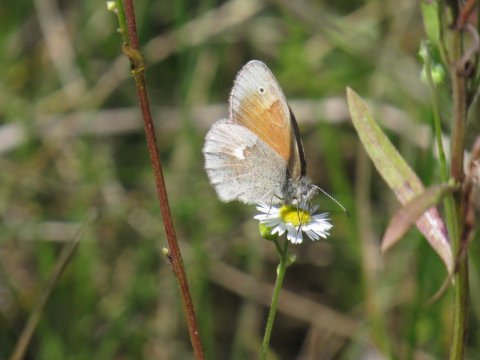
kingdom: Animalia
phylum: Arthropoda
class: Insecta
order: Lepidoptera
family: Nymphalidae
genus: Coenonympha
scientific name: Coenonympha tullia
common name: Large Heath
